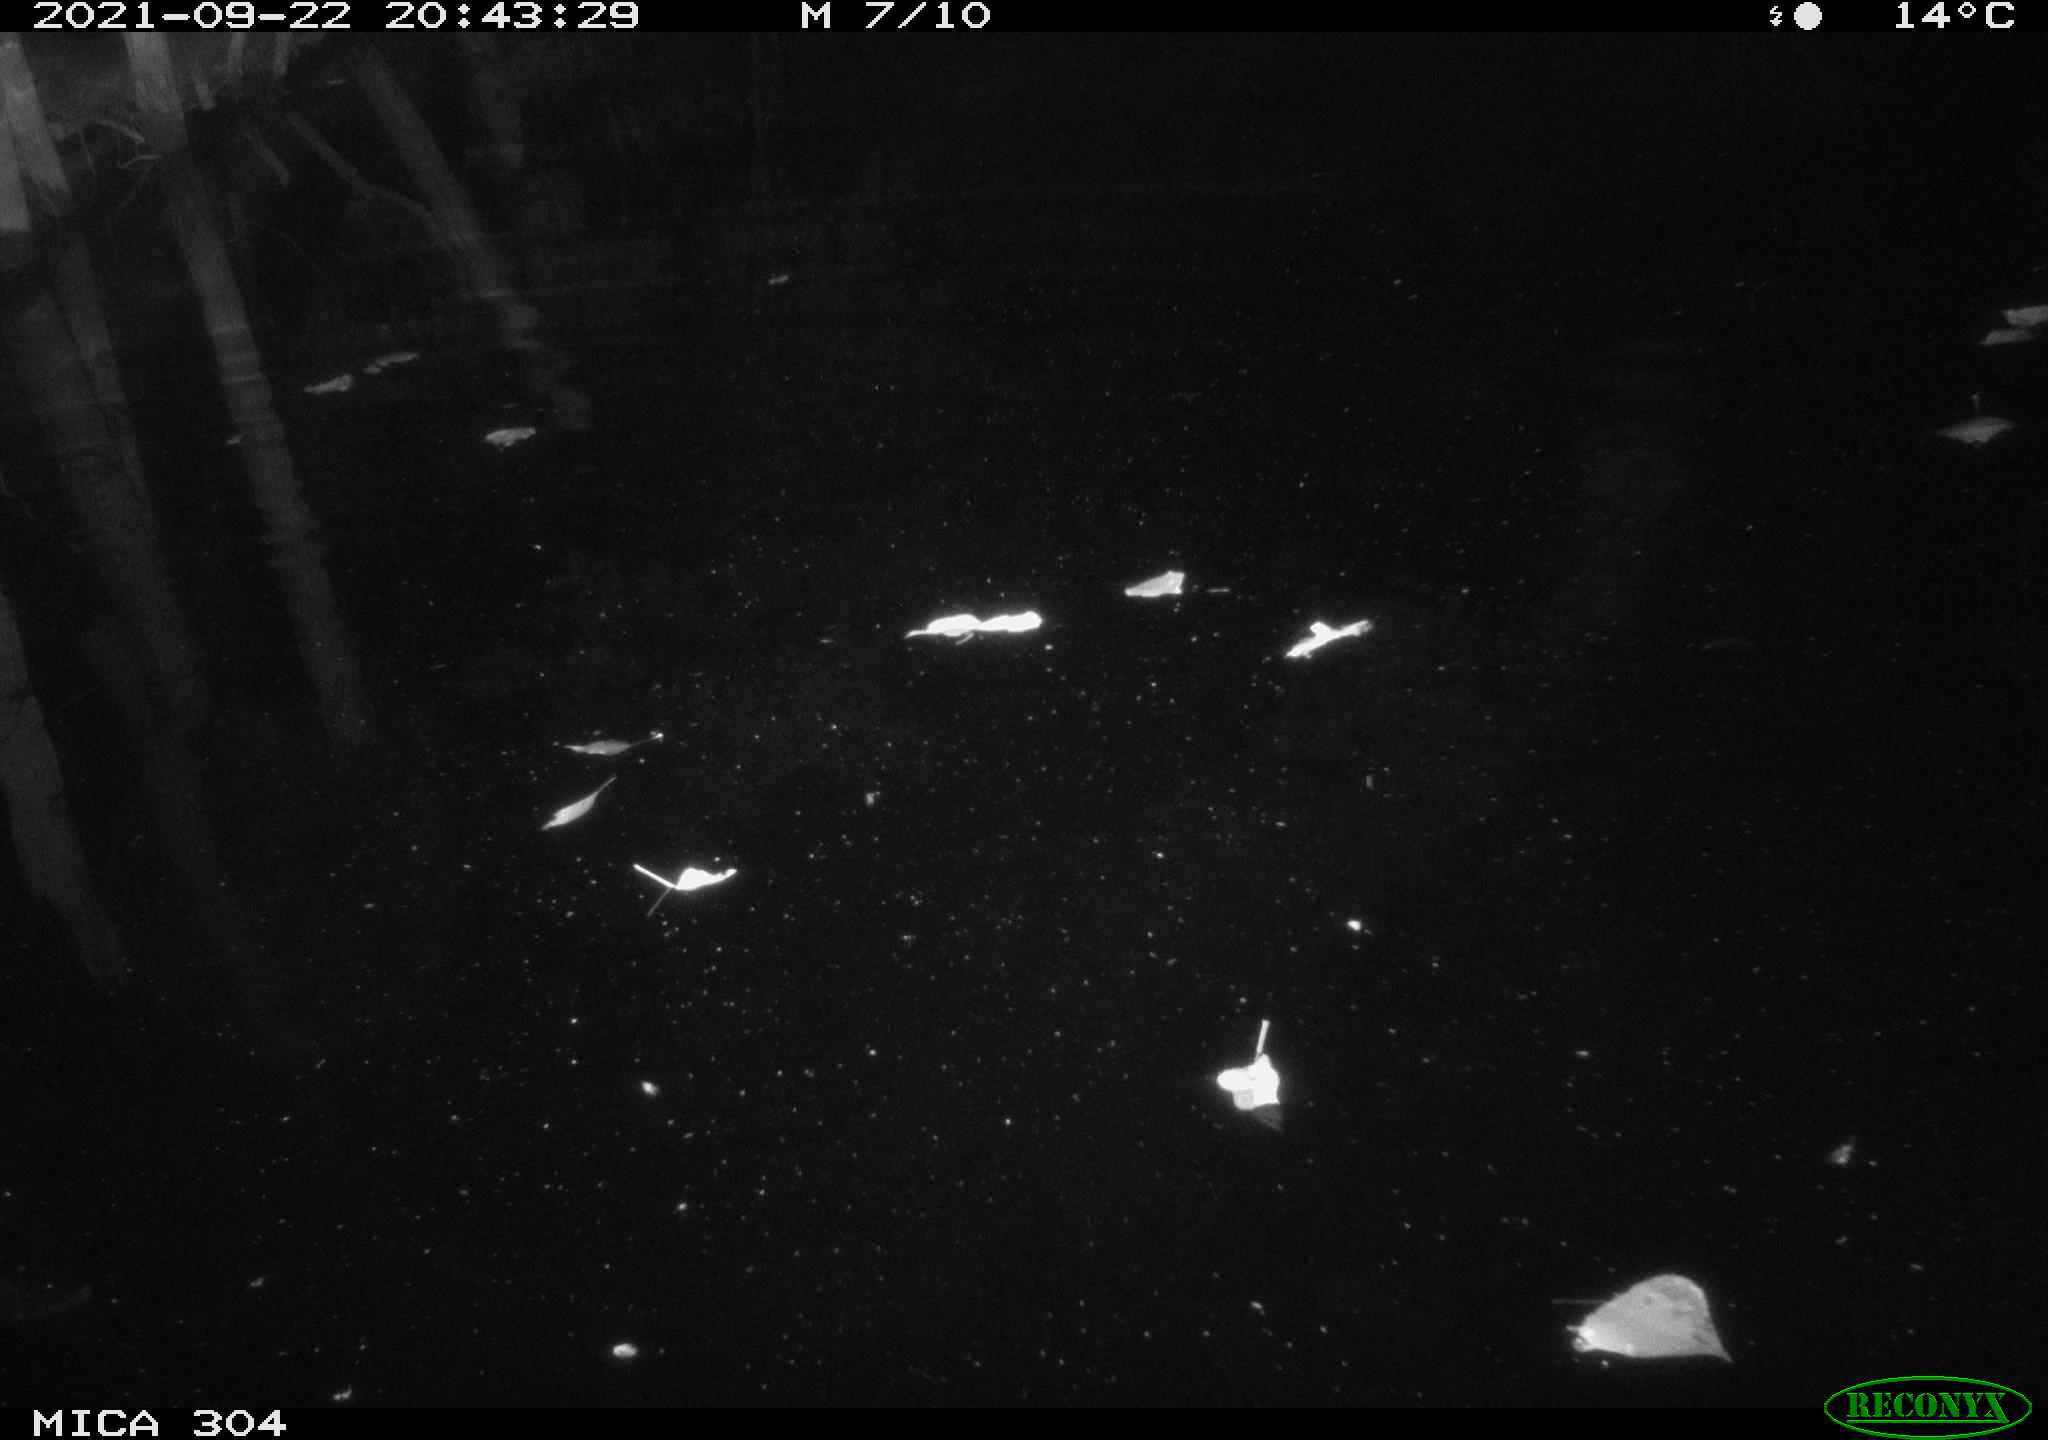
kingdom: Animalia
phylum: Chordata
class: Mammalia
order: Rodentia
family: Muridae
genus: Rattus
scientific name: Rattus norvegicus
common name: Brown rat
